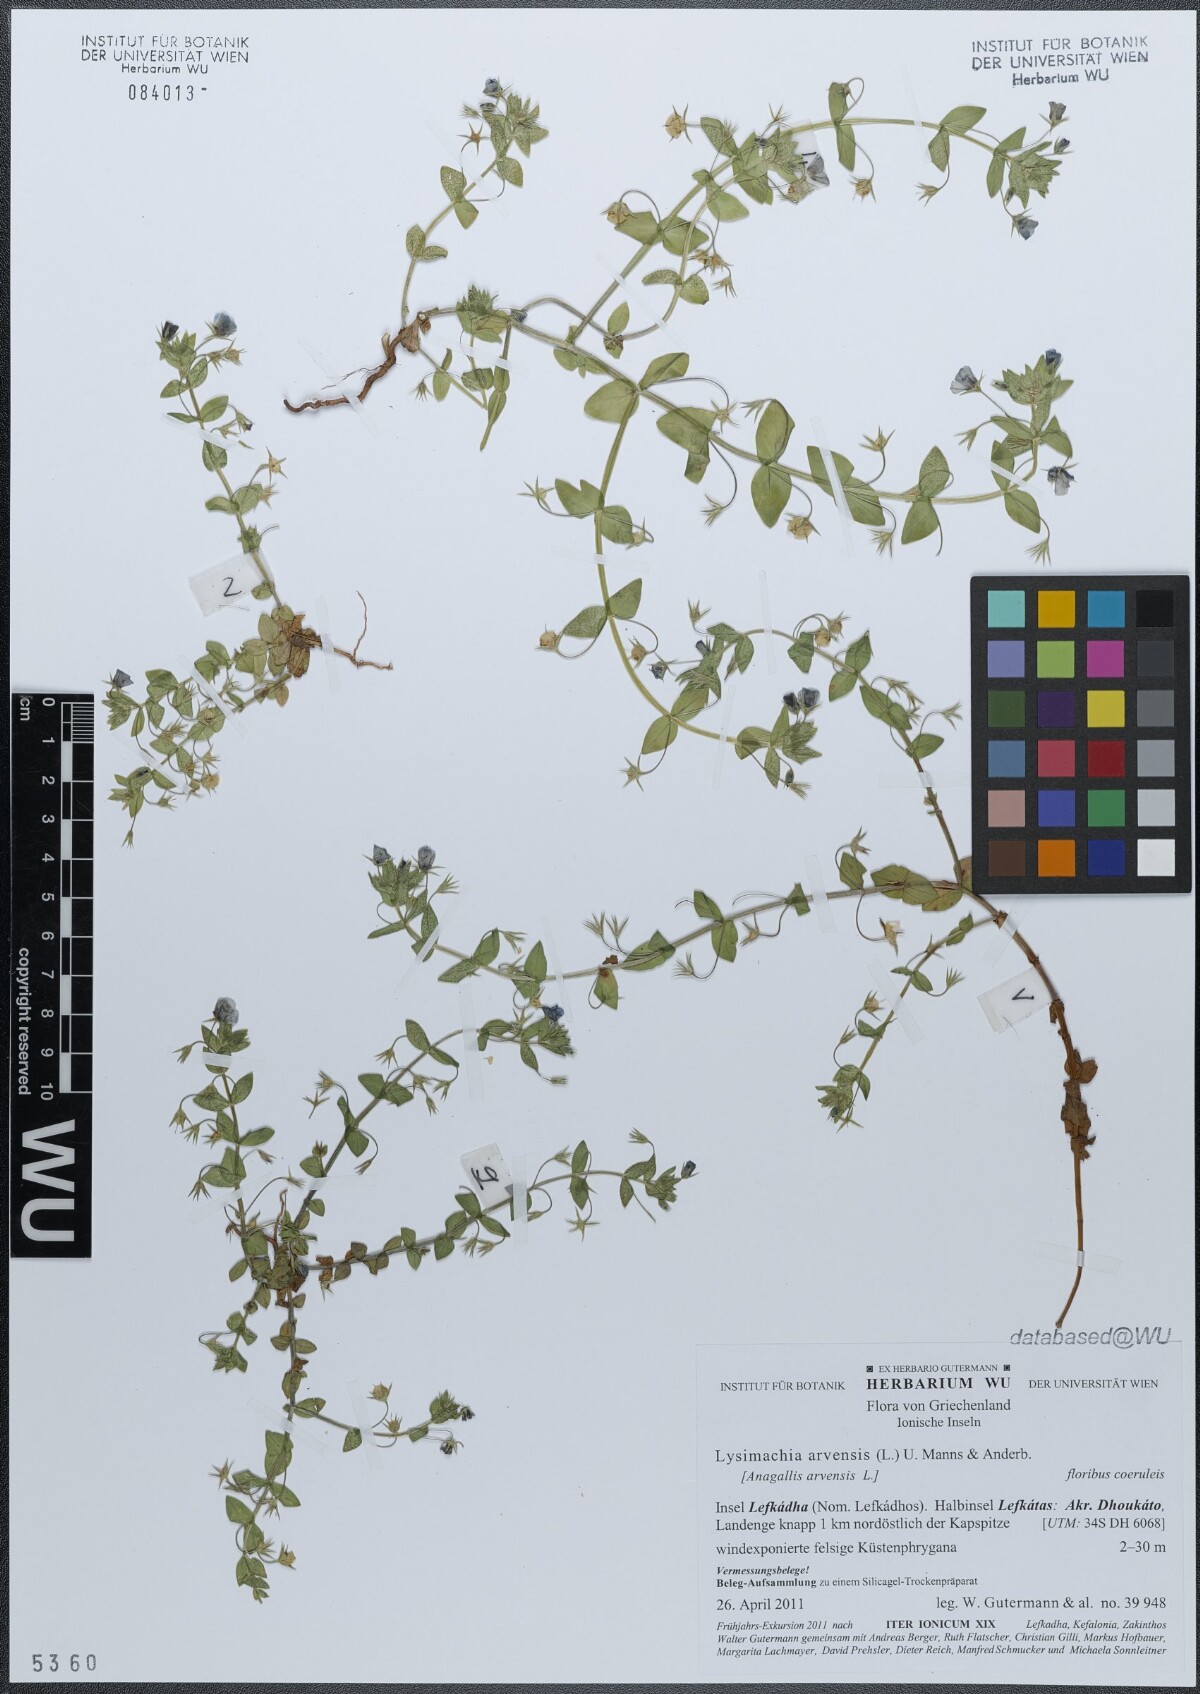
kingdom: Plantae
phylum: Tracheophyta
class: Magnoliopsida
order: Ericales
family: Primulaceae
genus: Lysimachia
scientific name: Lysimachia arvensis
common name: Scarlet pimpernel
